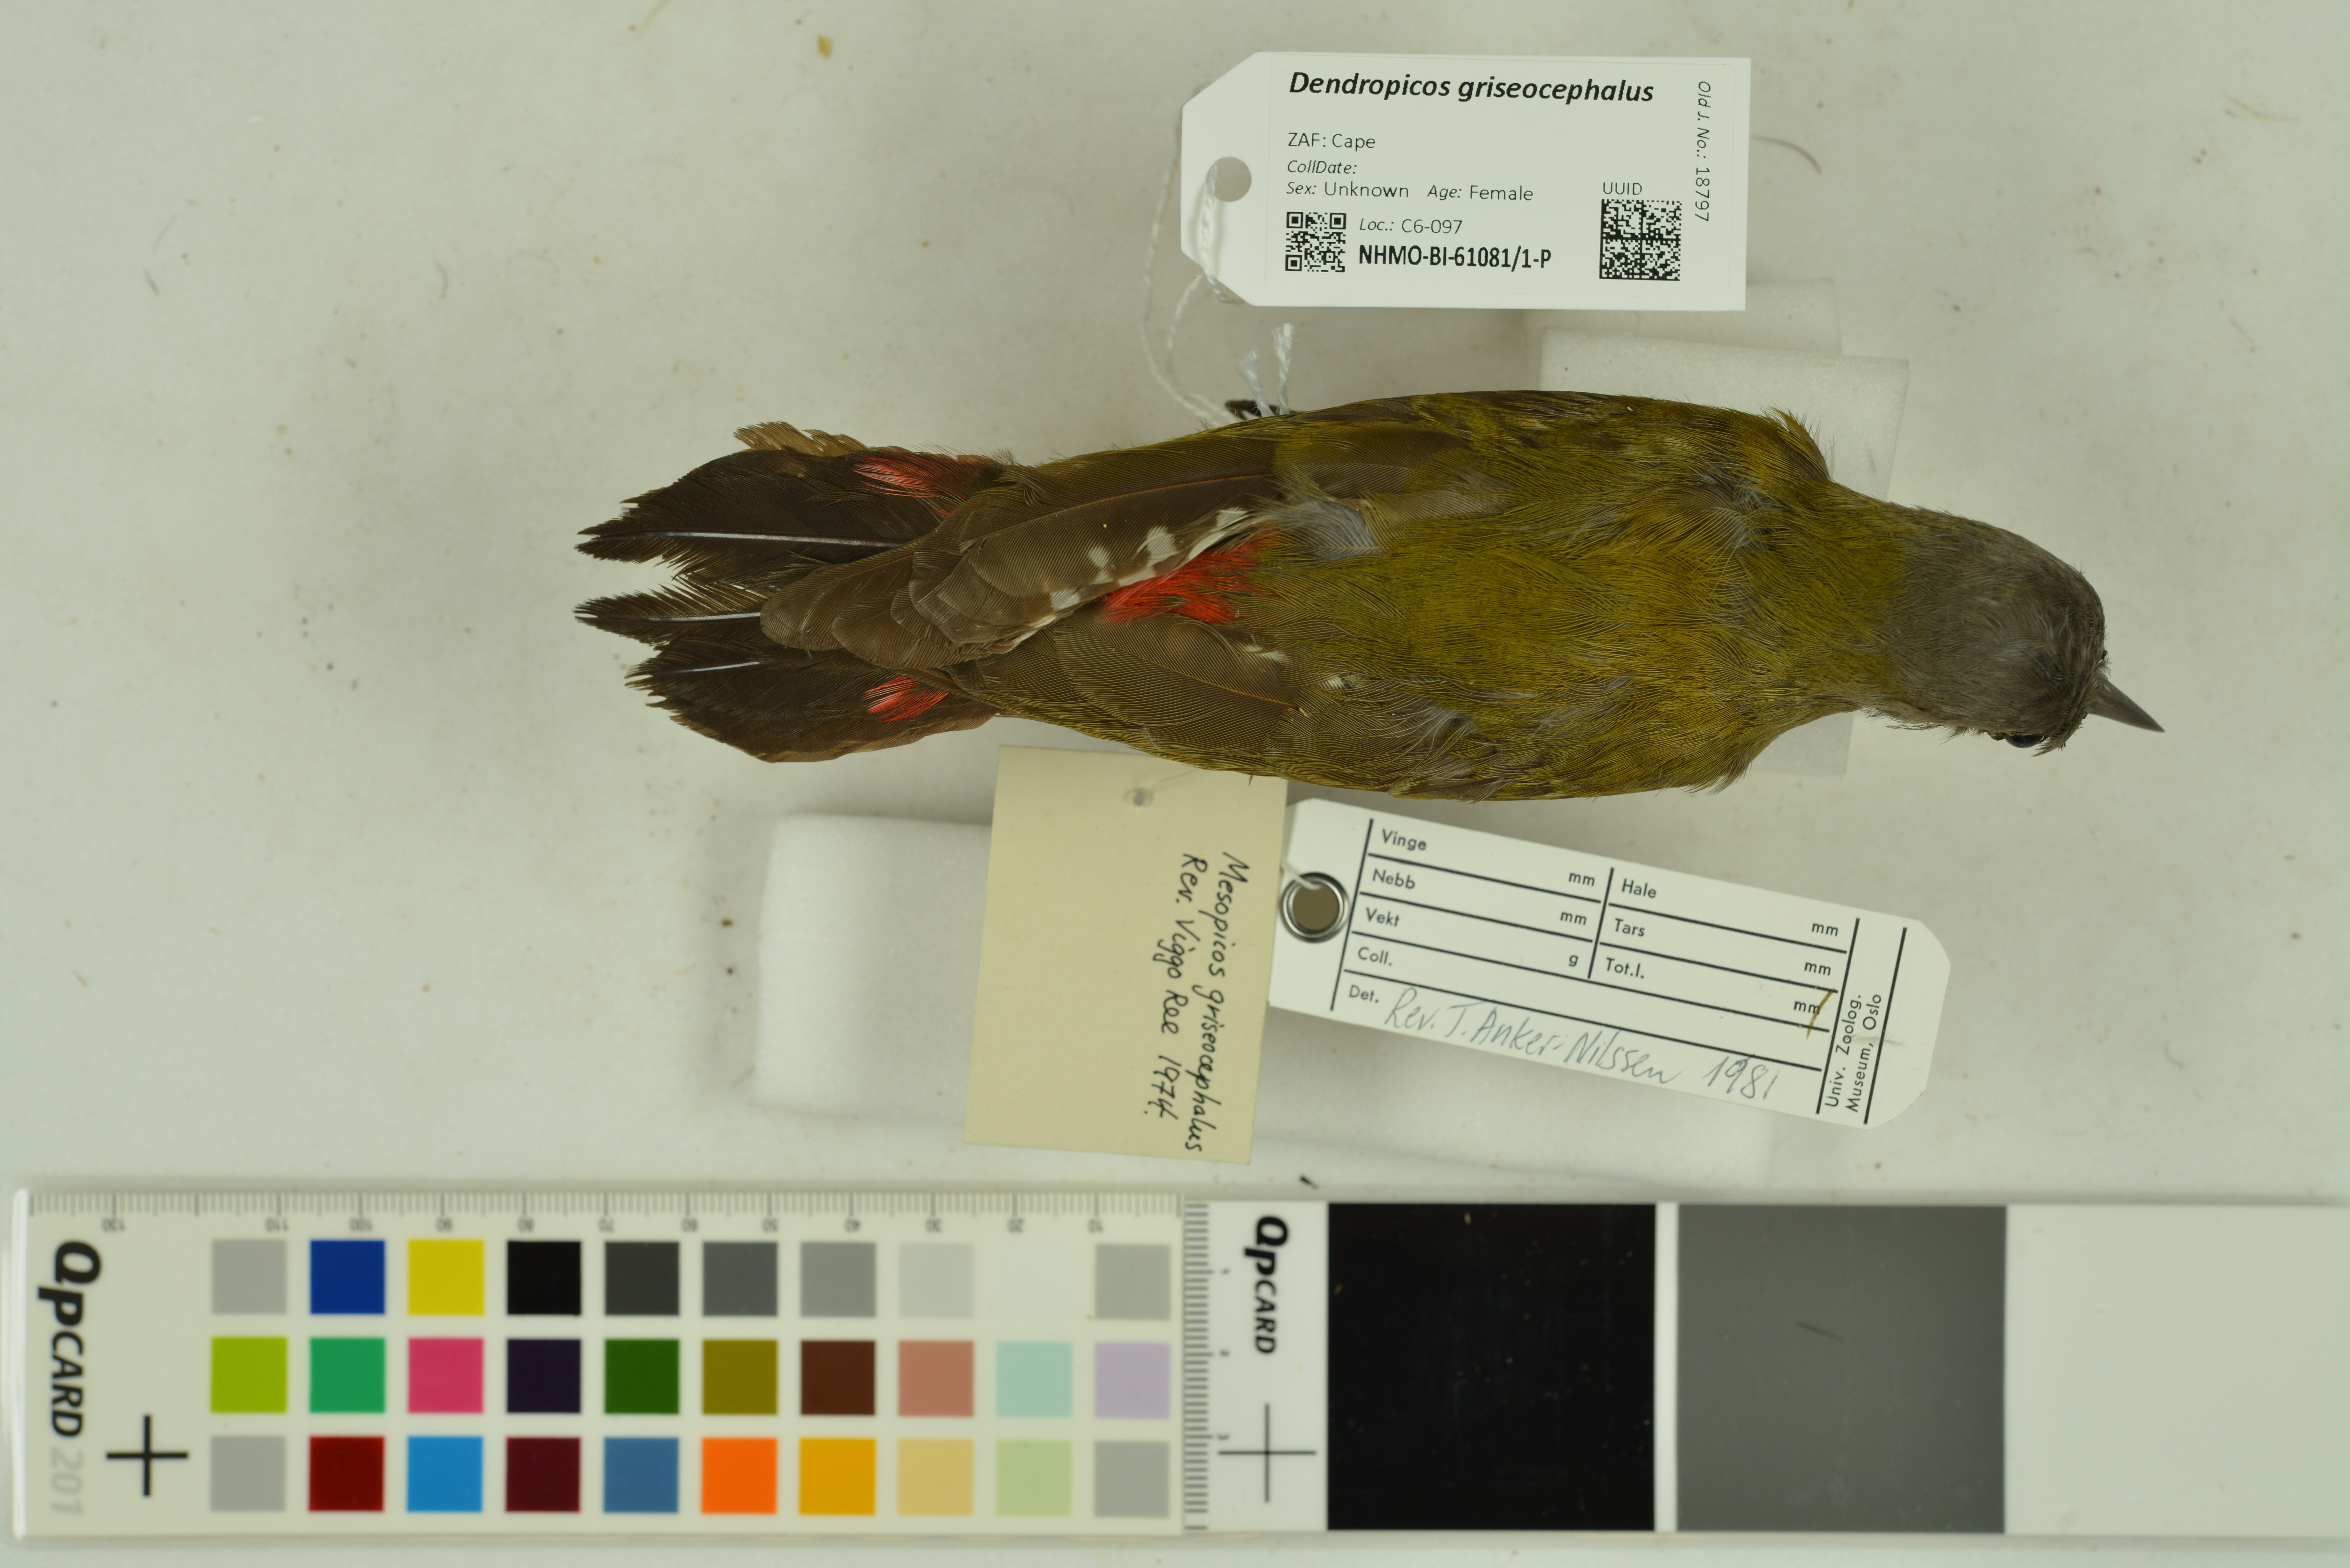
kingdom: Animalia
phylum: Chordata
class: Aves
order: Piciformes
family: Picidae
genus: Dendropicos
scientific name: Dendropicos griseocephalus
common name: Olive woodpecker
